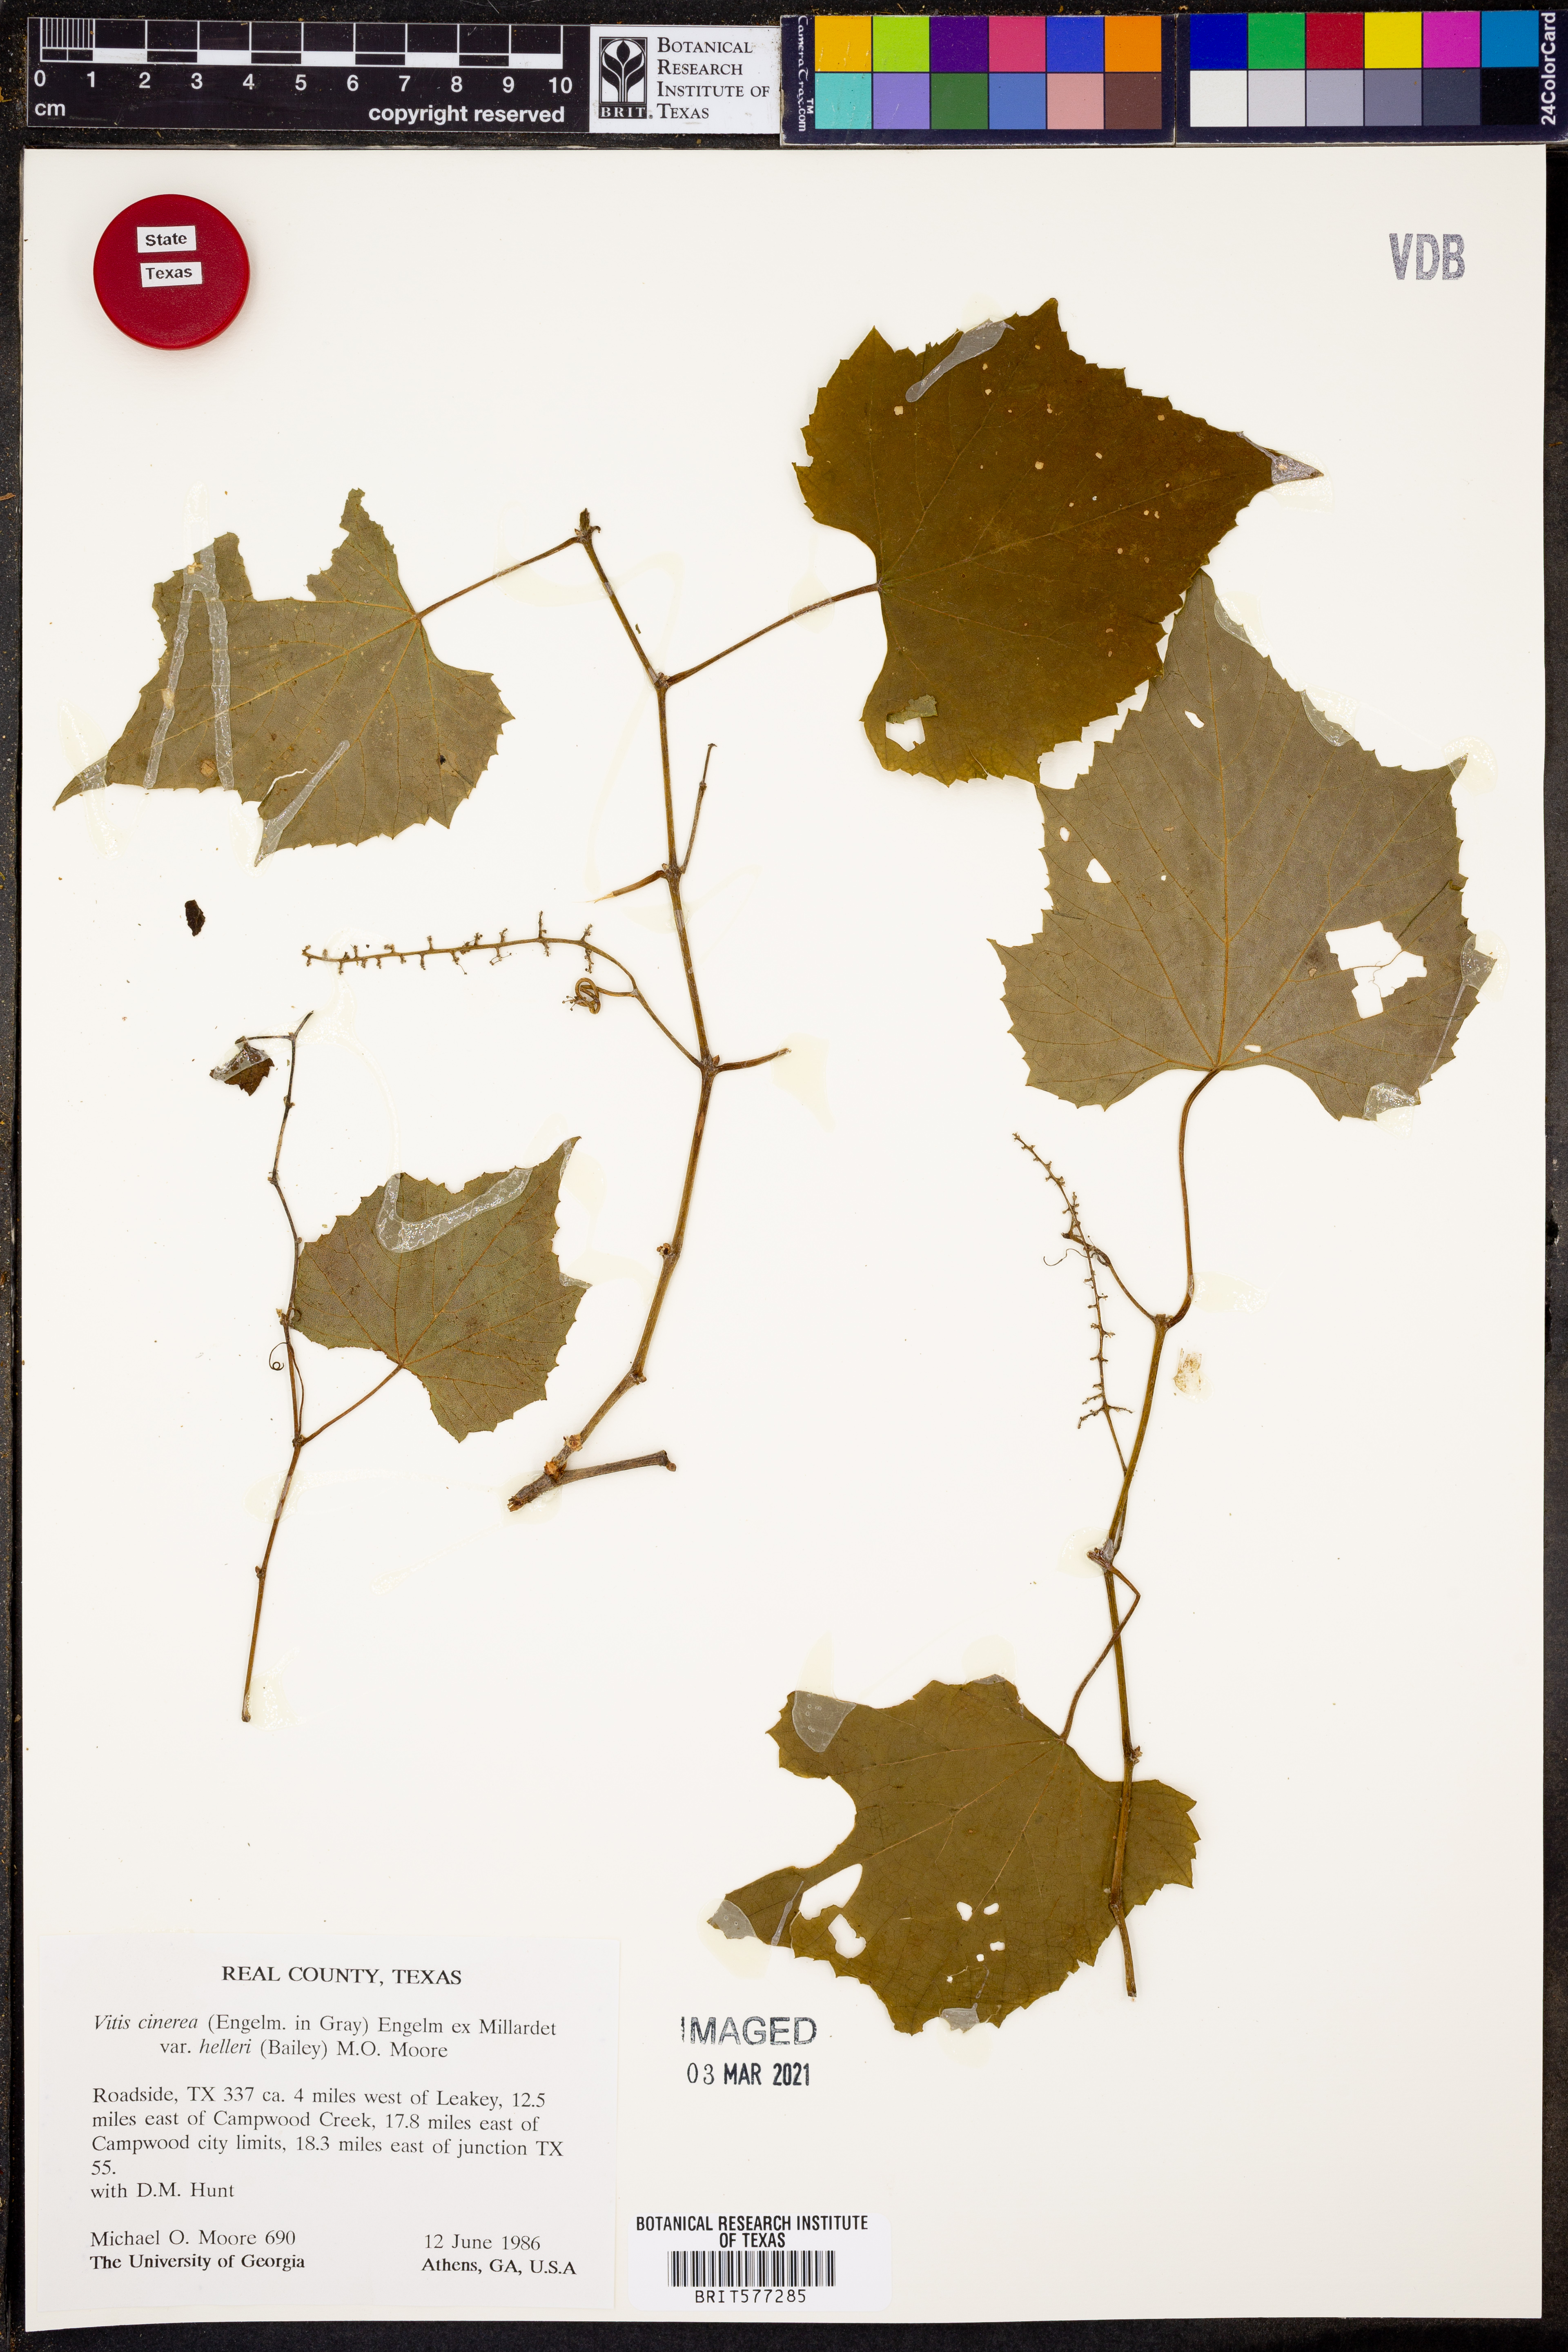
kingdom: Plantae
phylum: Tracheophyta
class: Magnoliopsida
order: Vitales
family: Vitaceae
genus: Vitis
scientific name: Vitis cinerea
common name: Ashy grape
